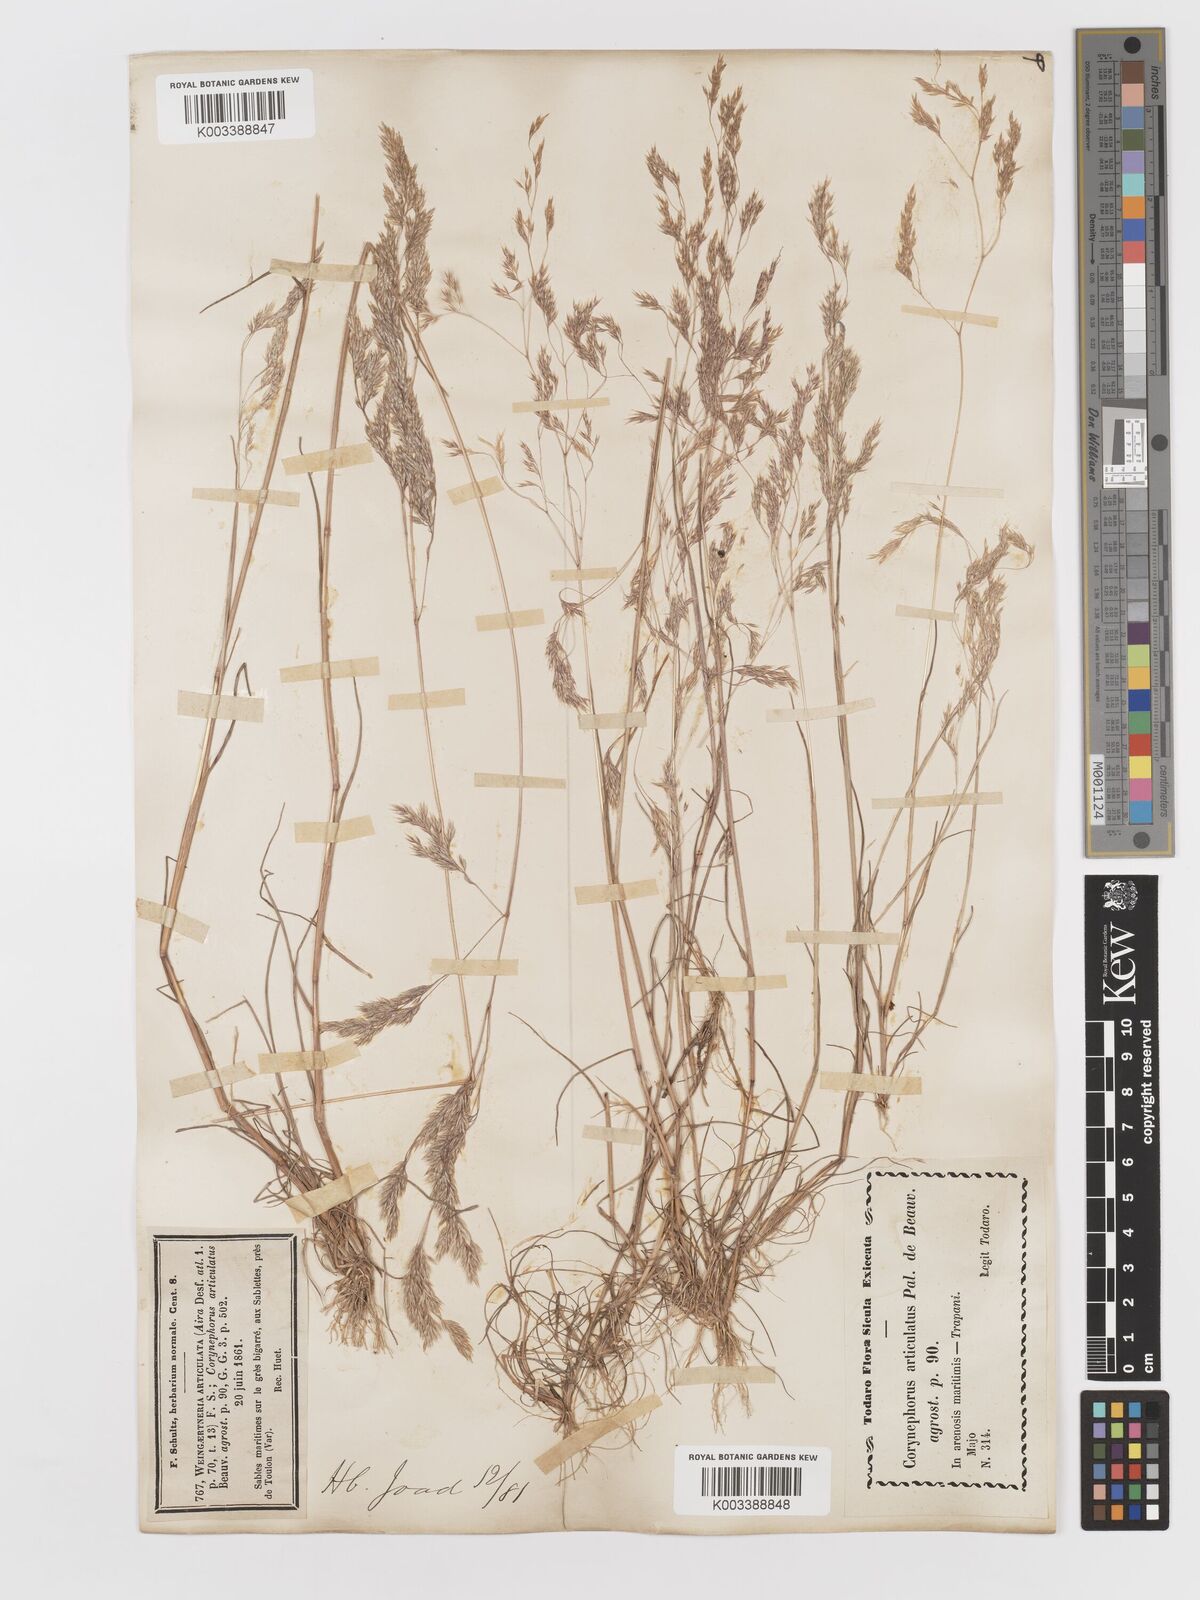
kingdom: Plantae
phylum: Tracheophyta
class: Liliopsida
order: Poales
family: Poaceae
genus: Corynephorus
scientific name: Corynephorus divaricatus
